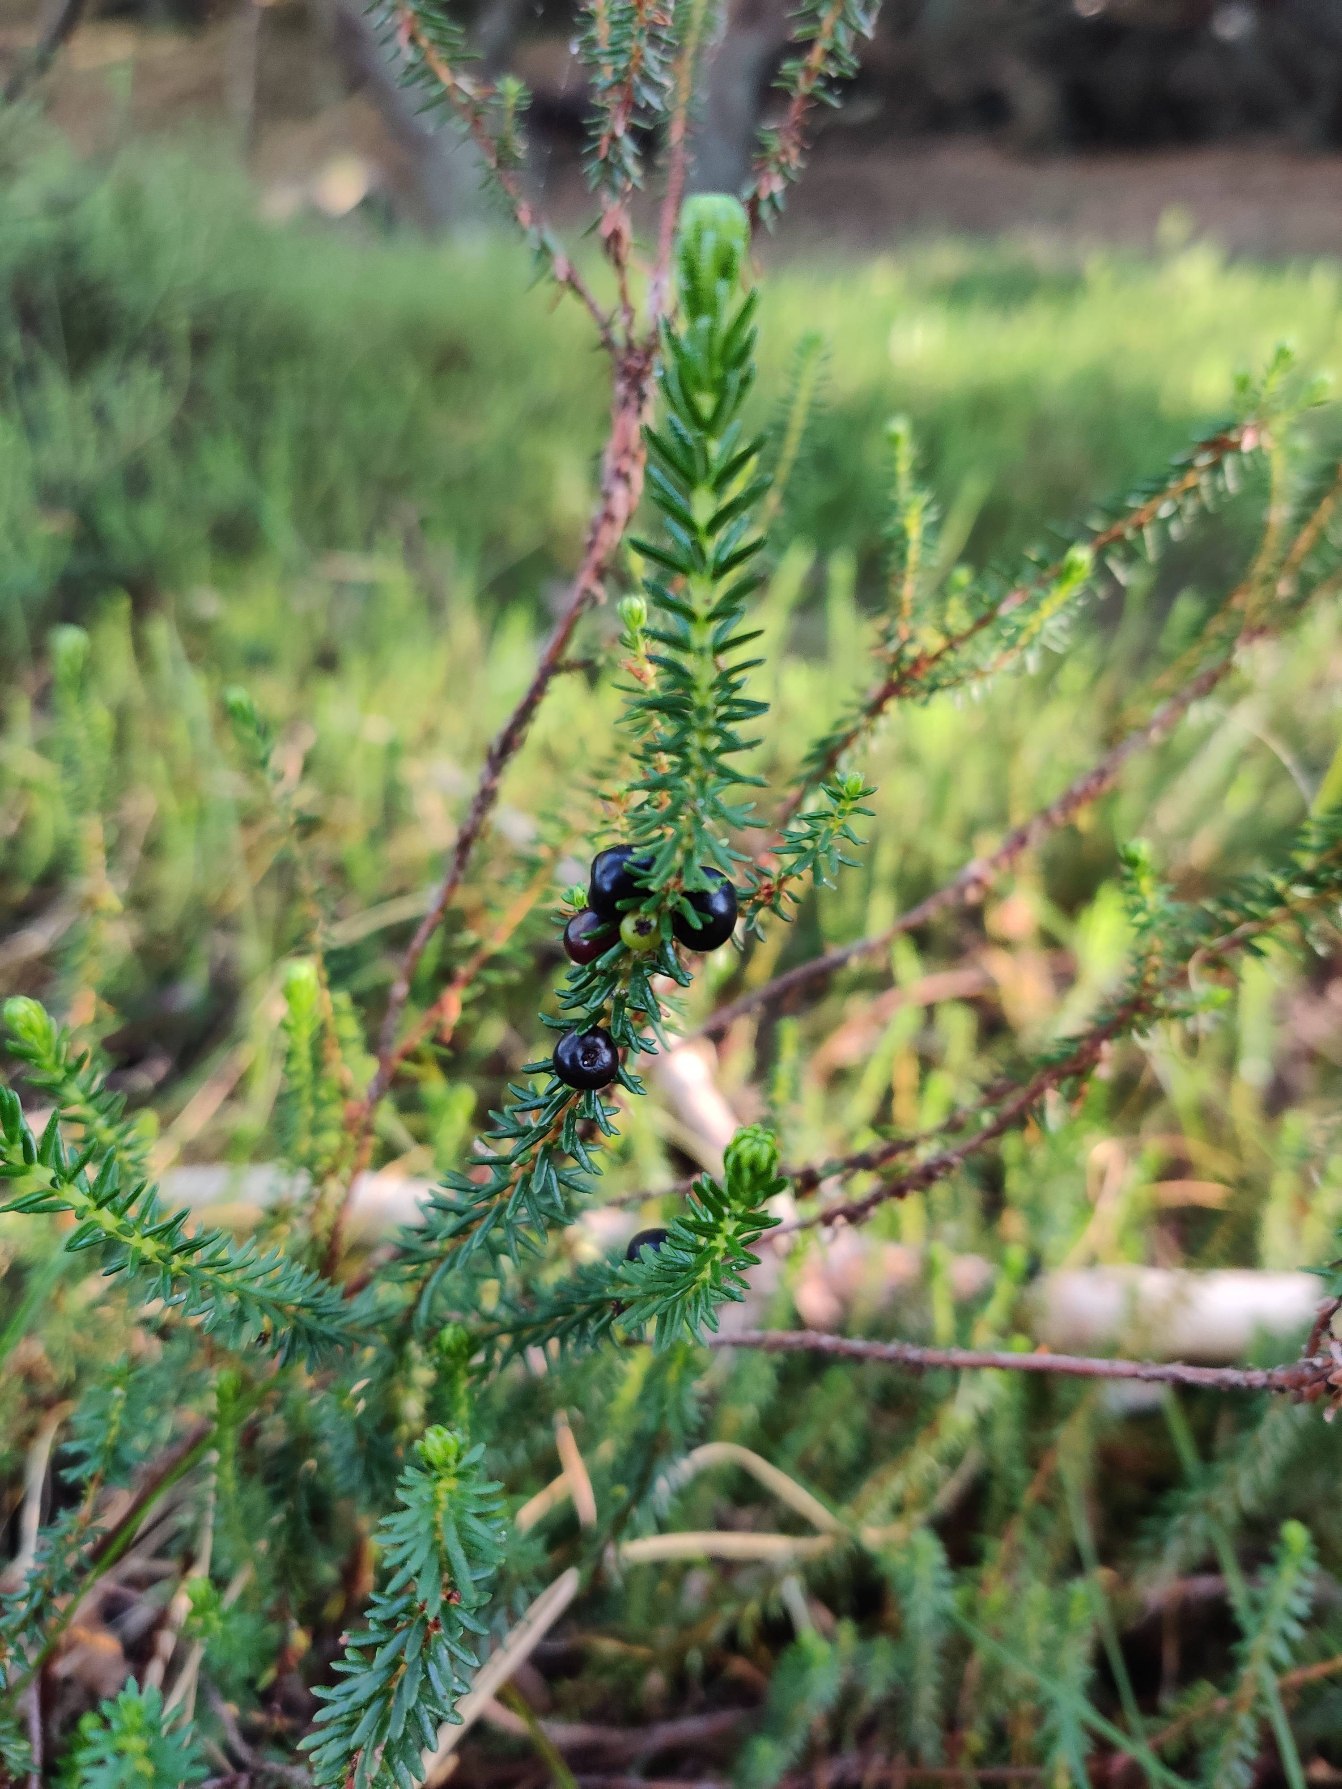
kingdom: Plantae
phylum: Tracheophyta
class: Magnoliopsida
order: Ericales
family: Ericaceae
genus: Empetrum
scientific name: Empetrum nigrum
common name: Revling
